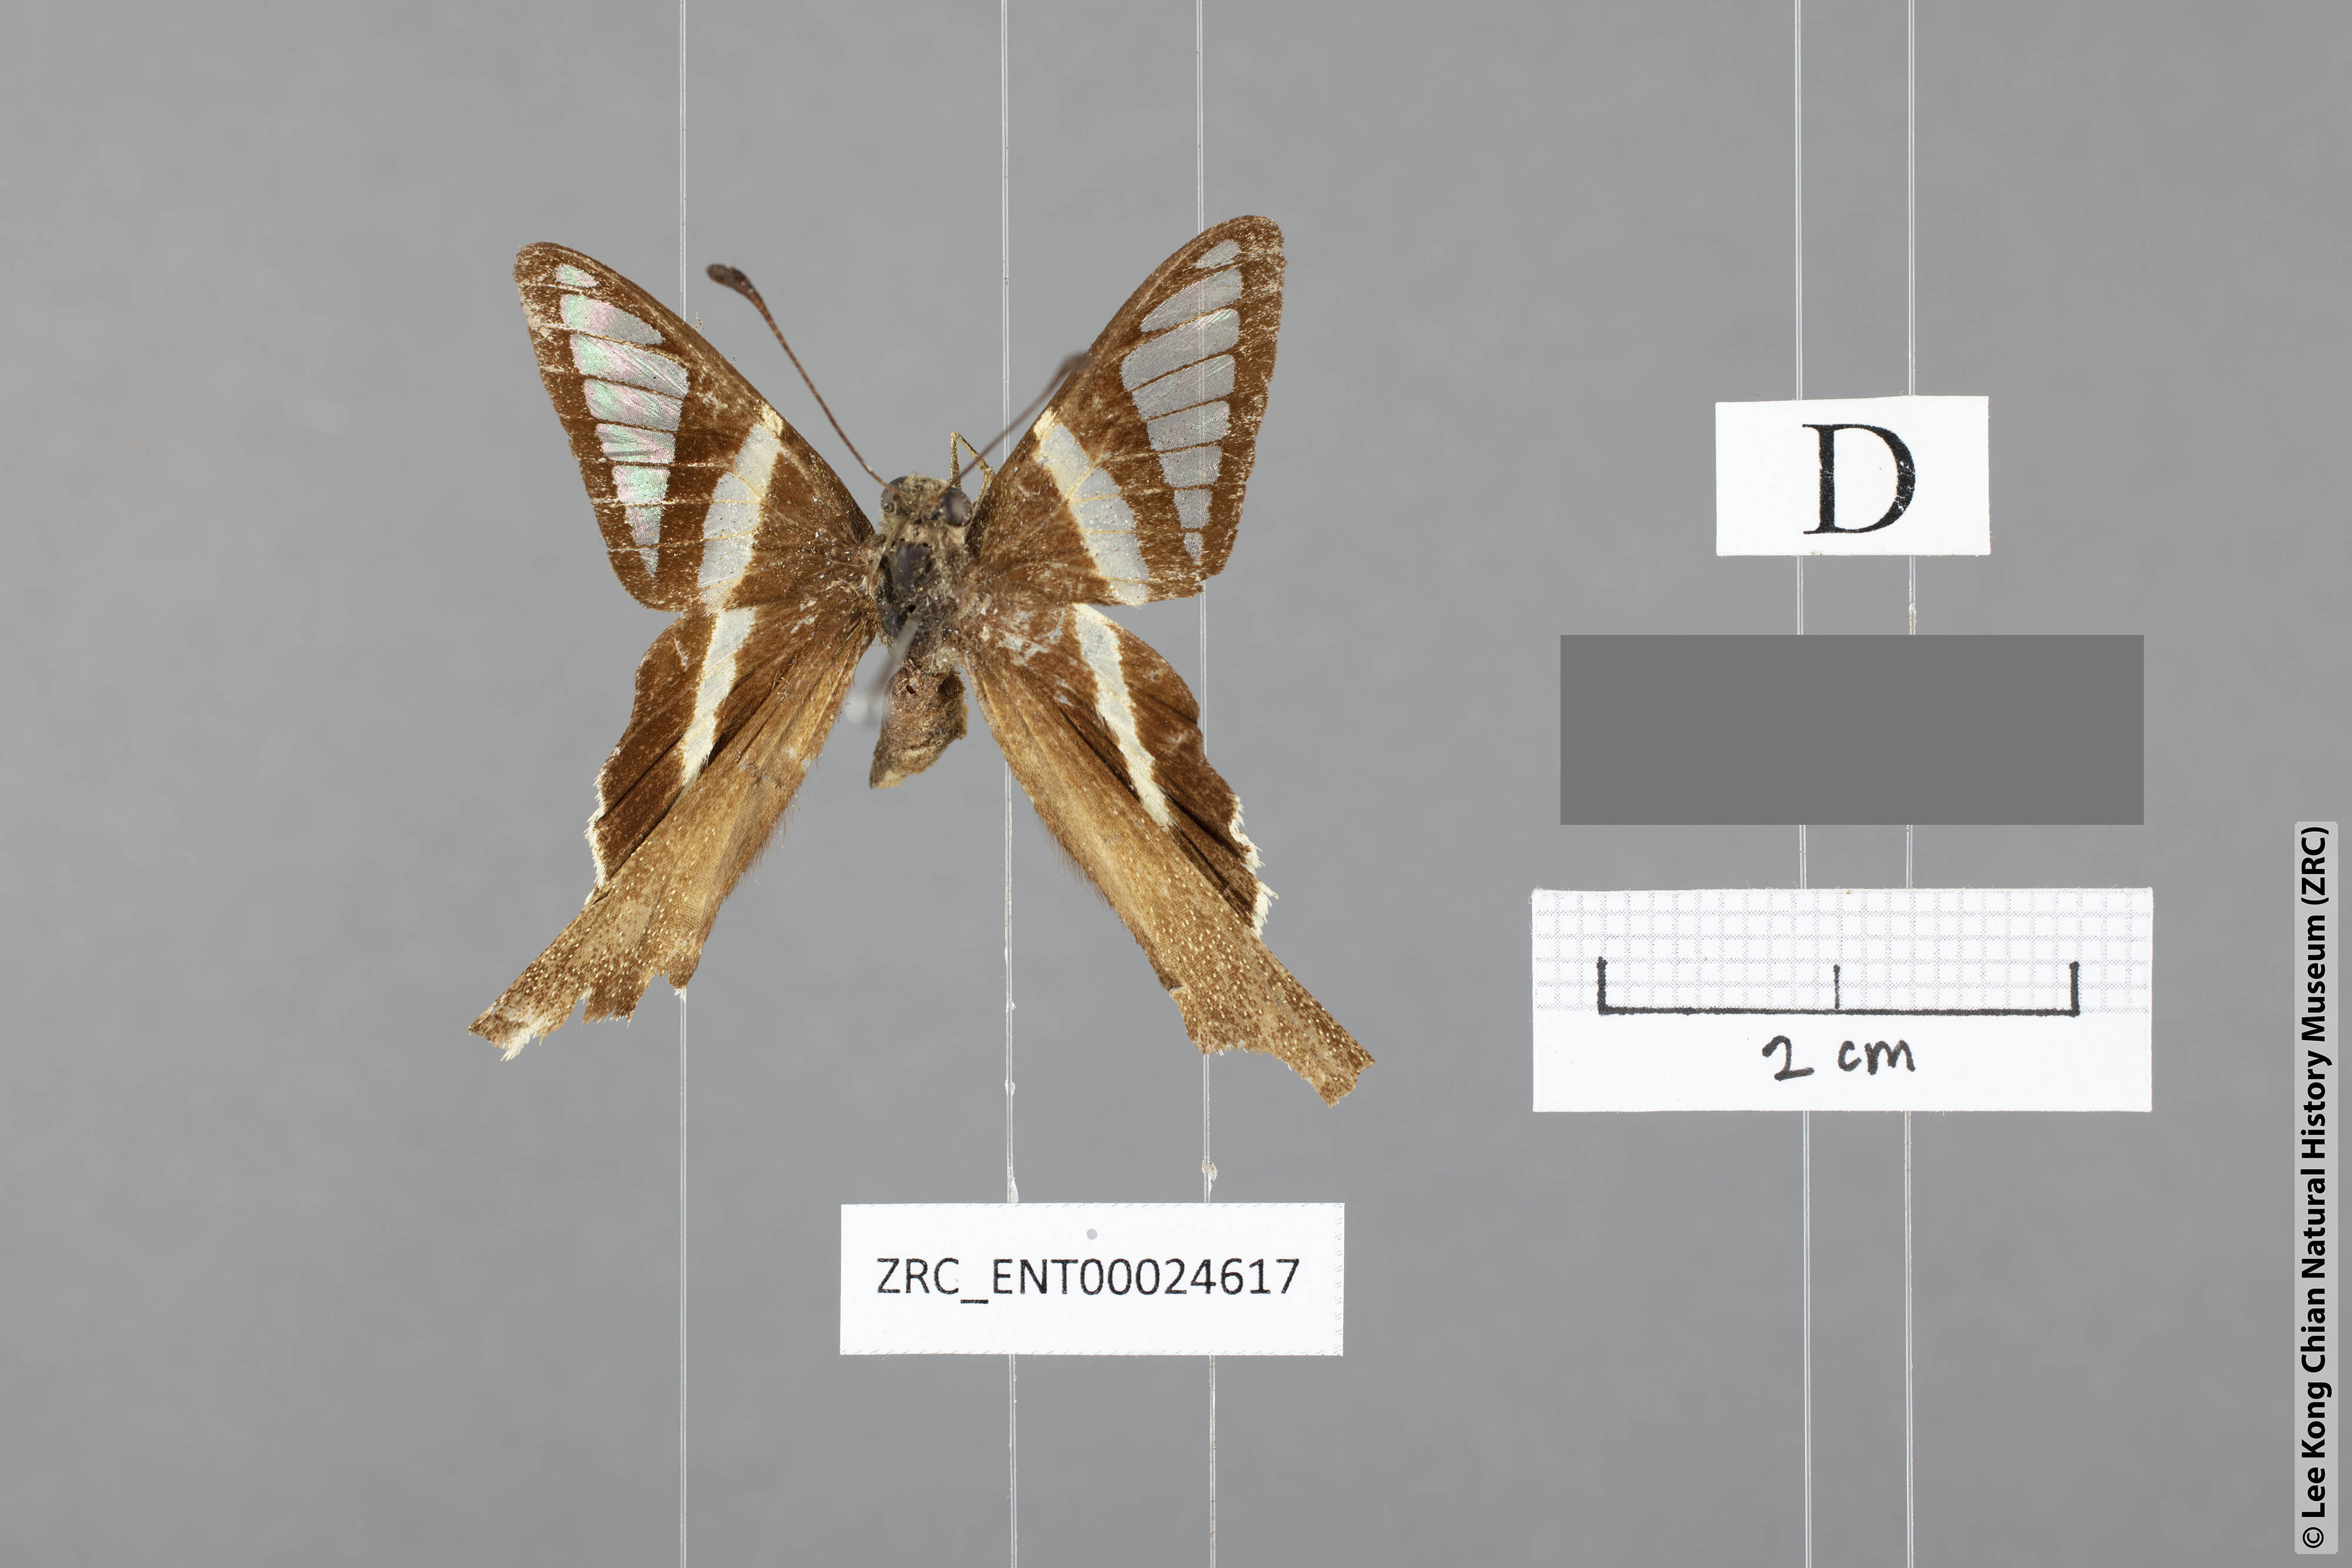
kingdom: Animalia
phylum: Arthropoda
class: Insecta
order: Lepidoptera
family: Papilionidae
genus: Lamproptera
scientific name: Lamproptera curius
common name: White dragontail
